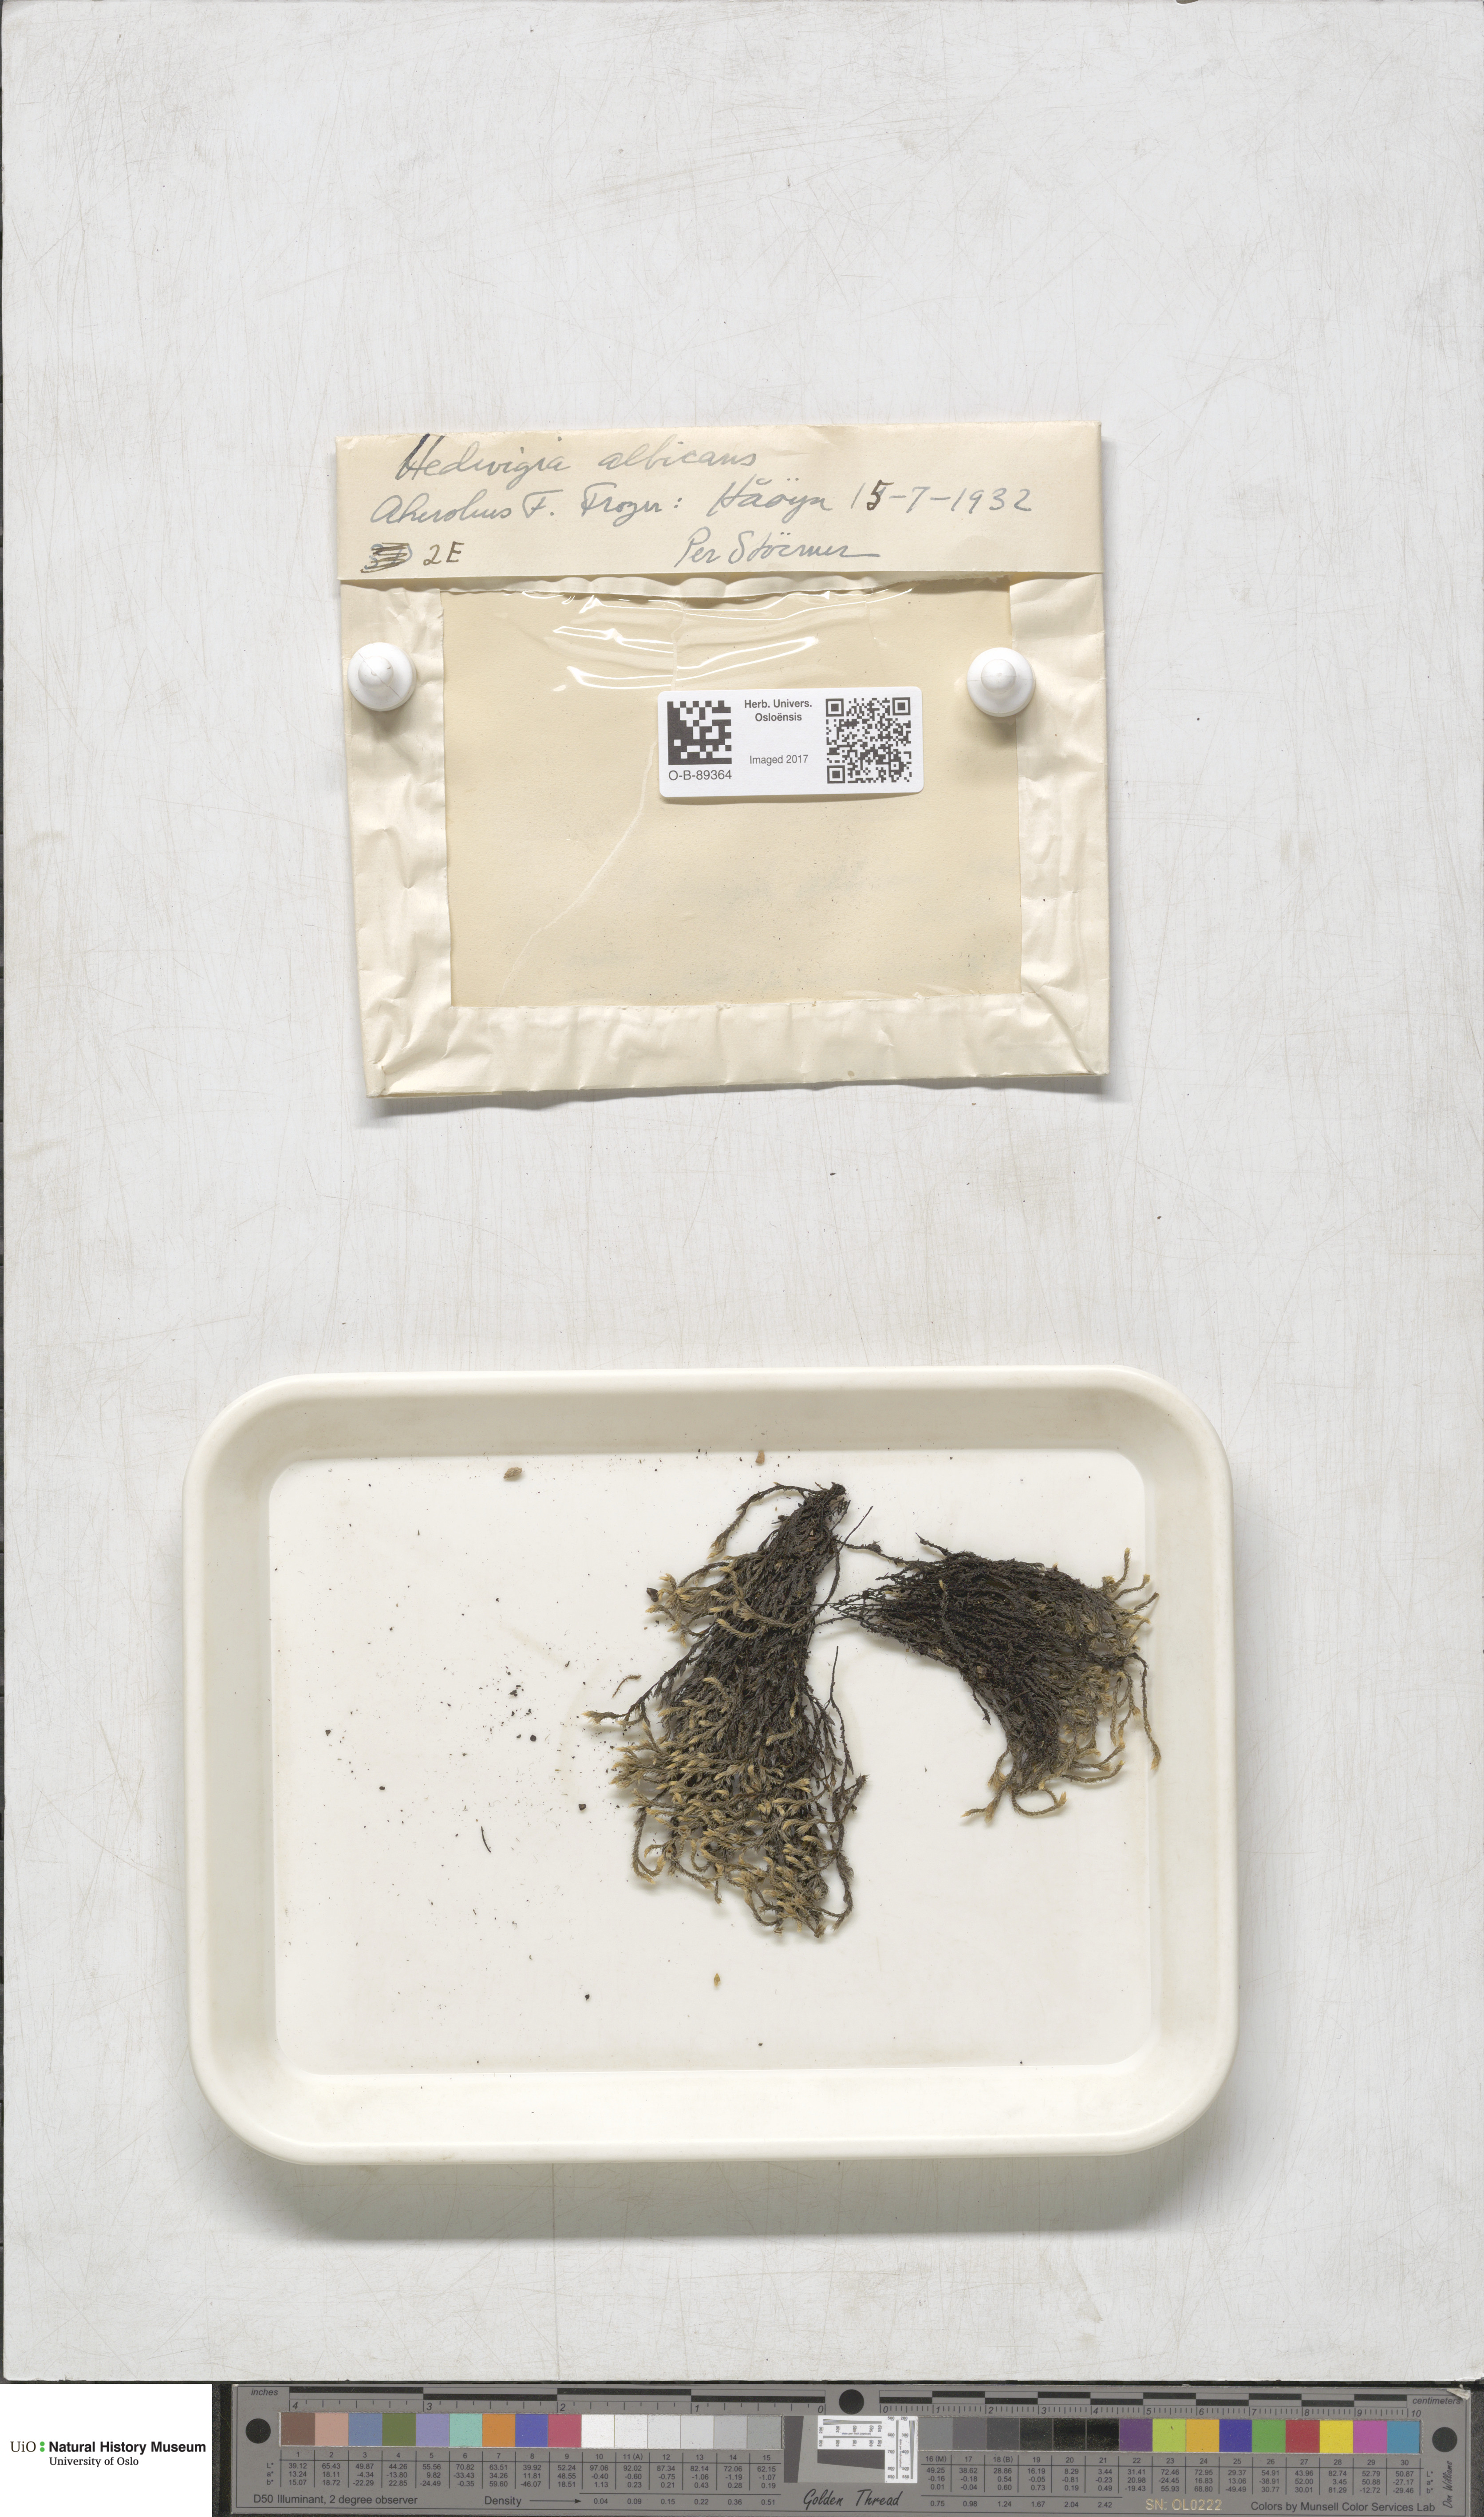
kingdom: Plantae
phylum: Bryophyta
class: Bryopsida
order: Hedwigiales
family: Hedwigiaceae
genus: Hedwigia
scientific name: Hedwigia ciliata
